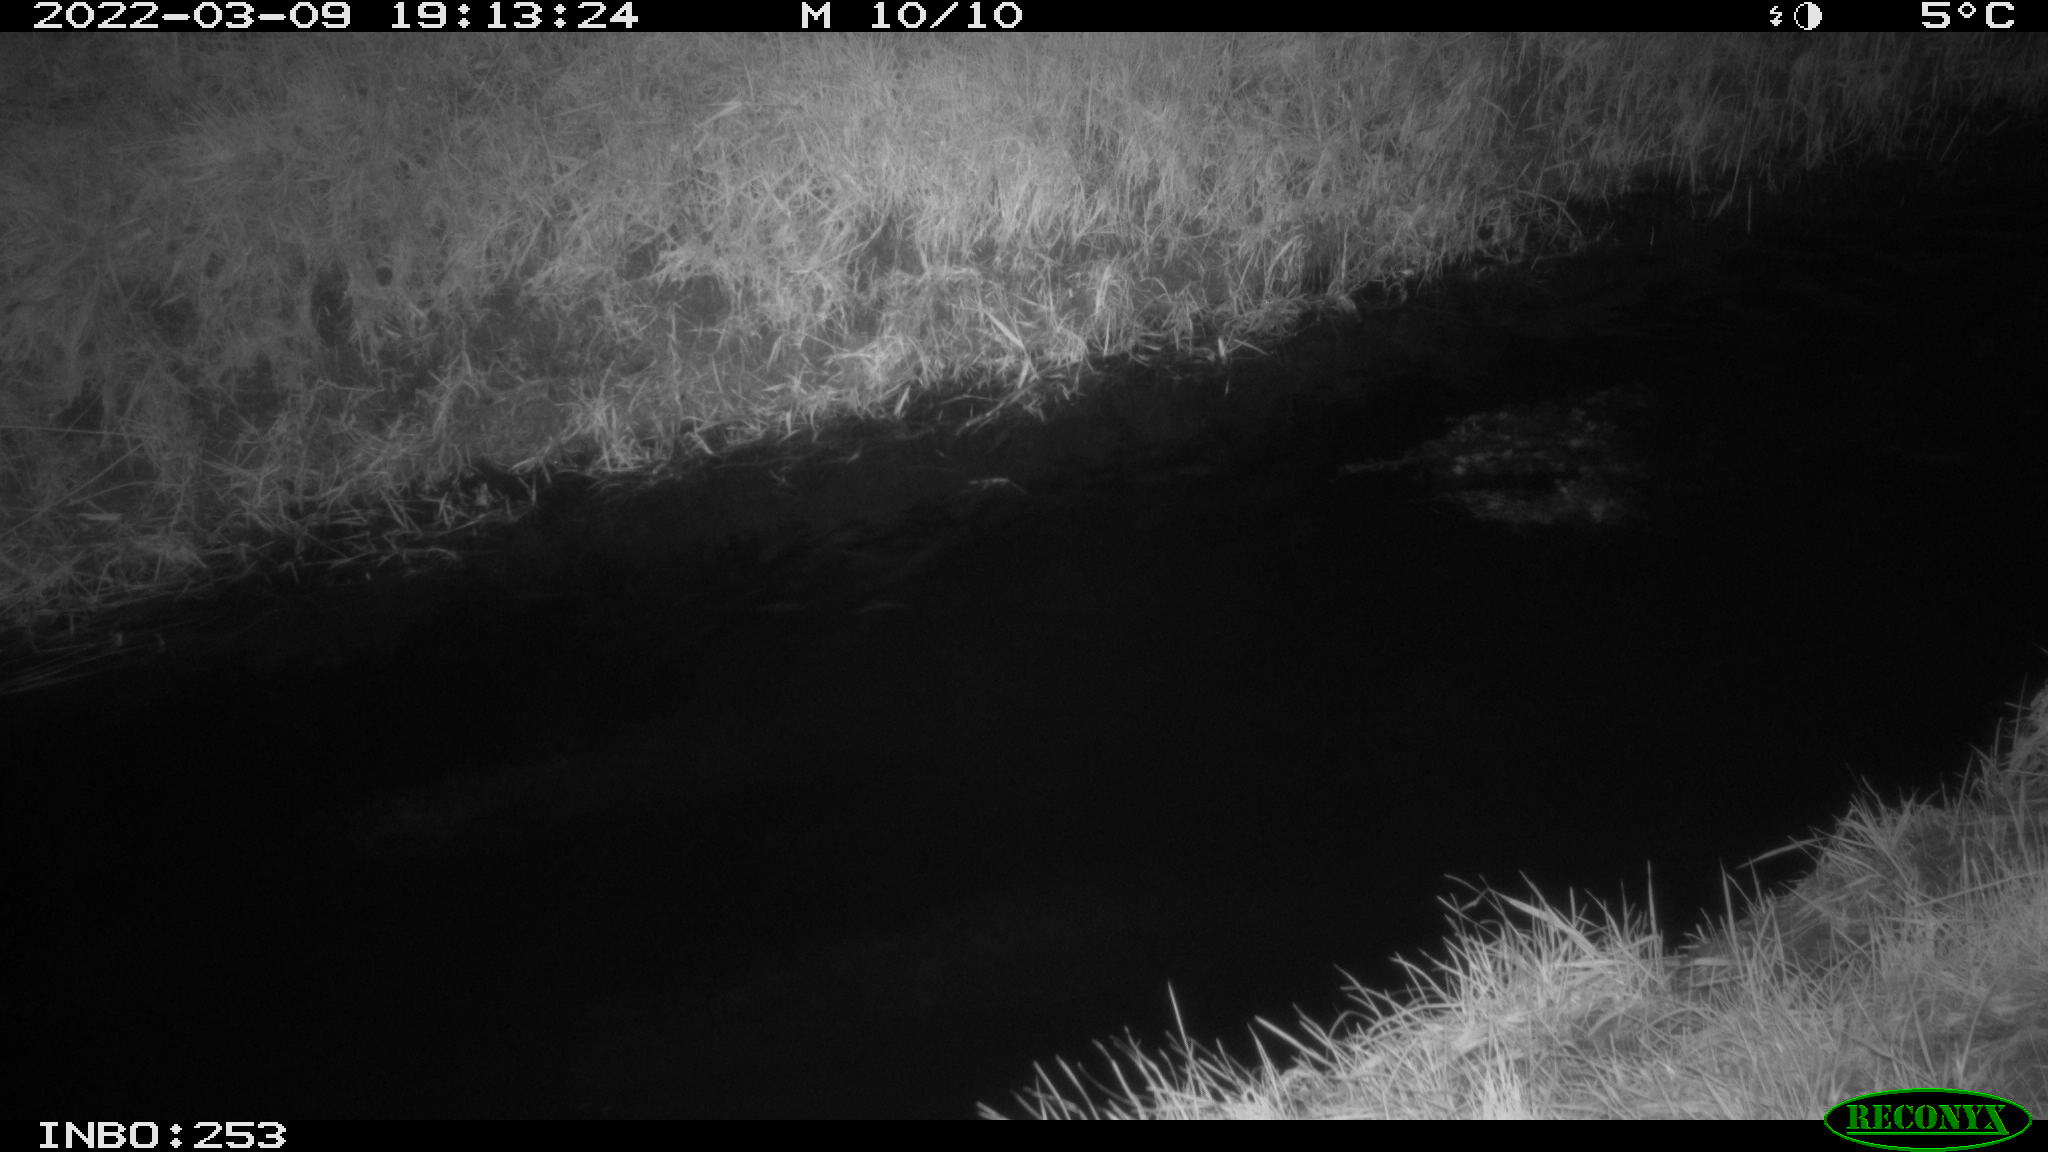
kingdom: Animalia
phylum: Chordata
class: Mammalia
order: Artiodactyla
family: Cervidae
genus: Capreolus
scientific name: Capreolus capreolus
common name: Western roe deer
